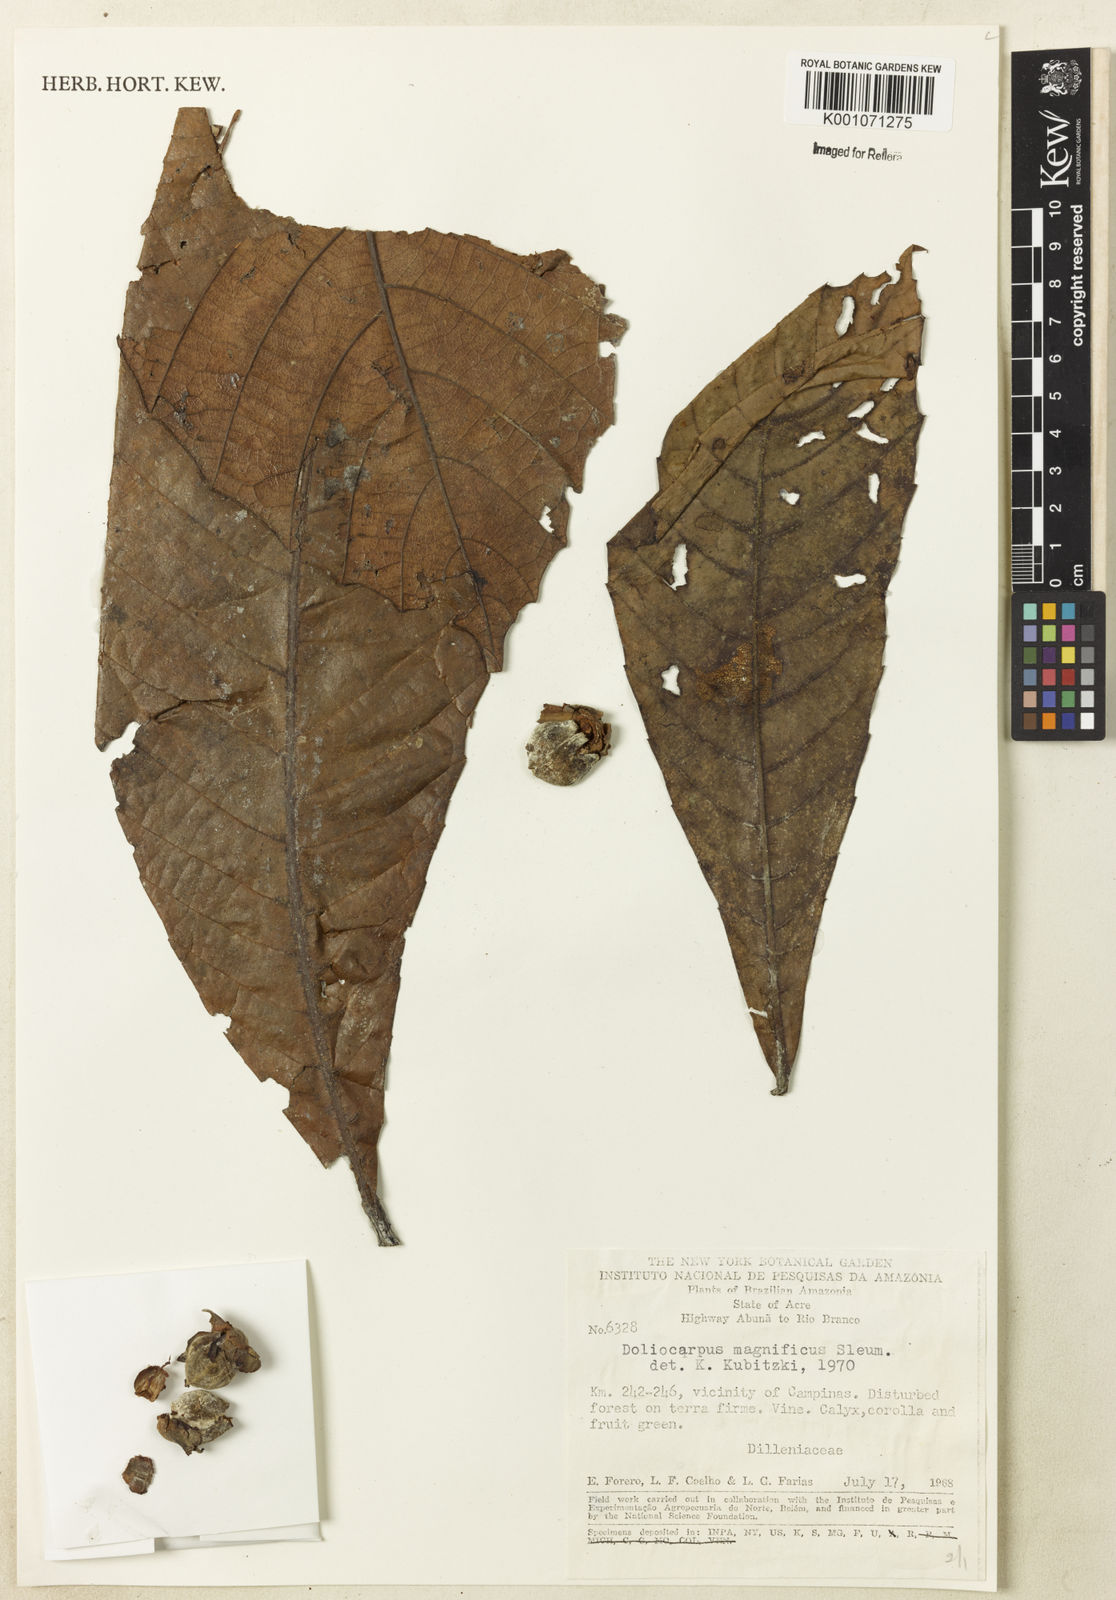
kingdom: Plantae
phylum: Tracheophyta
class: Magnoliopsida
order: Dilleniales
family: Dilleniaceae
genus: Doliocarpus
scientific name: Doliocarpus magnificus
